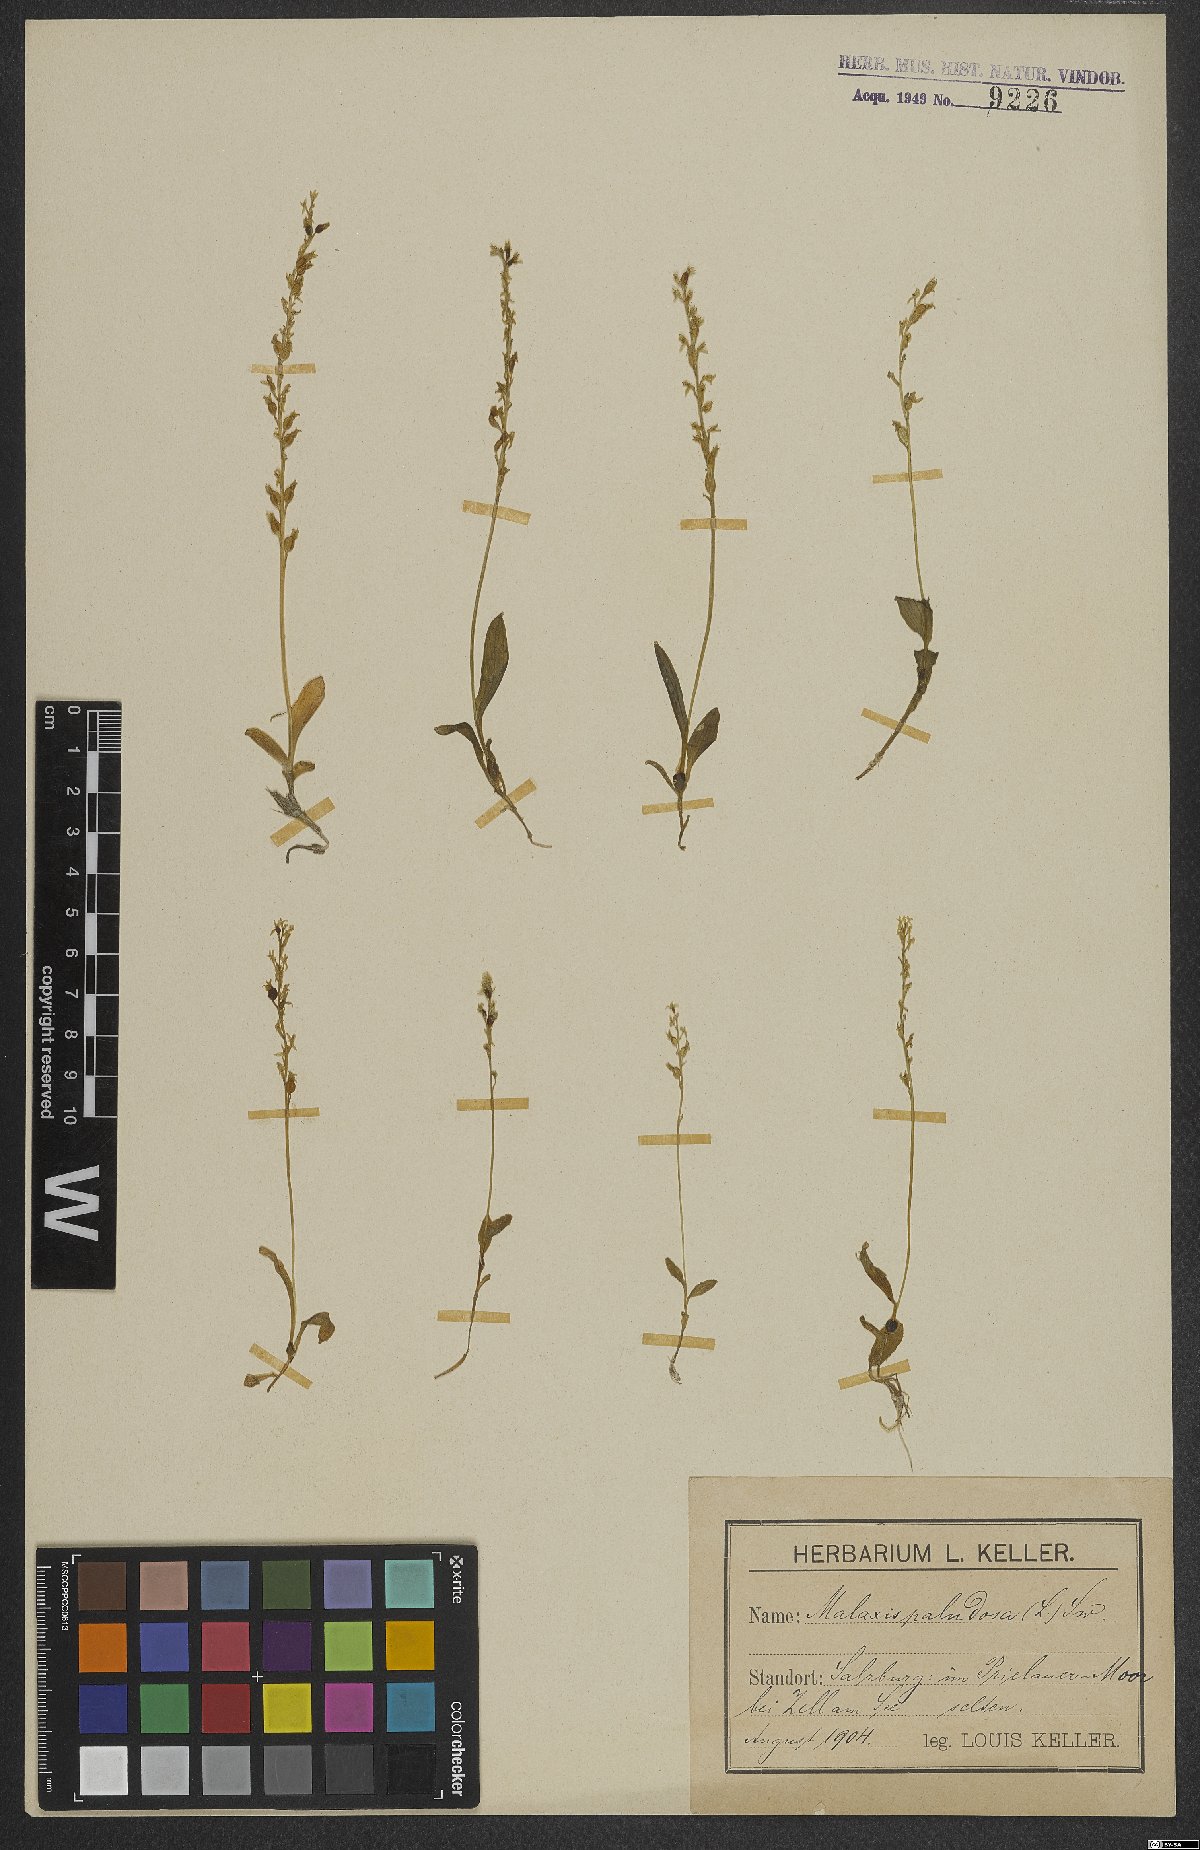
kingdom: Plantae
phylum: Tracheophyta
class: Liliopsida
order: Asparagales
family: Orchidaceae
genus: Hammarbya
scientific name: Hammarbya paludosa
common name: Bog orchid
